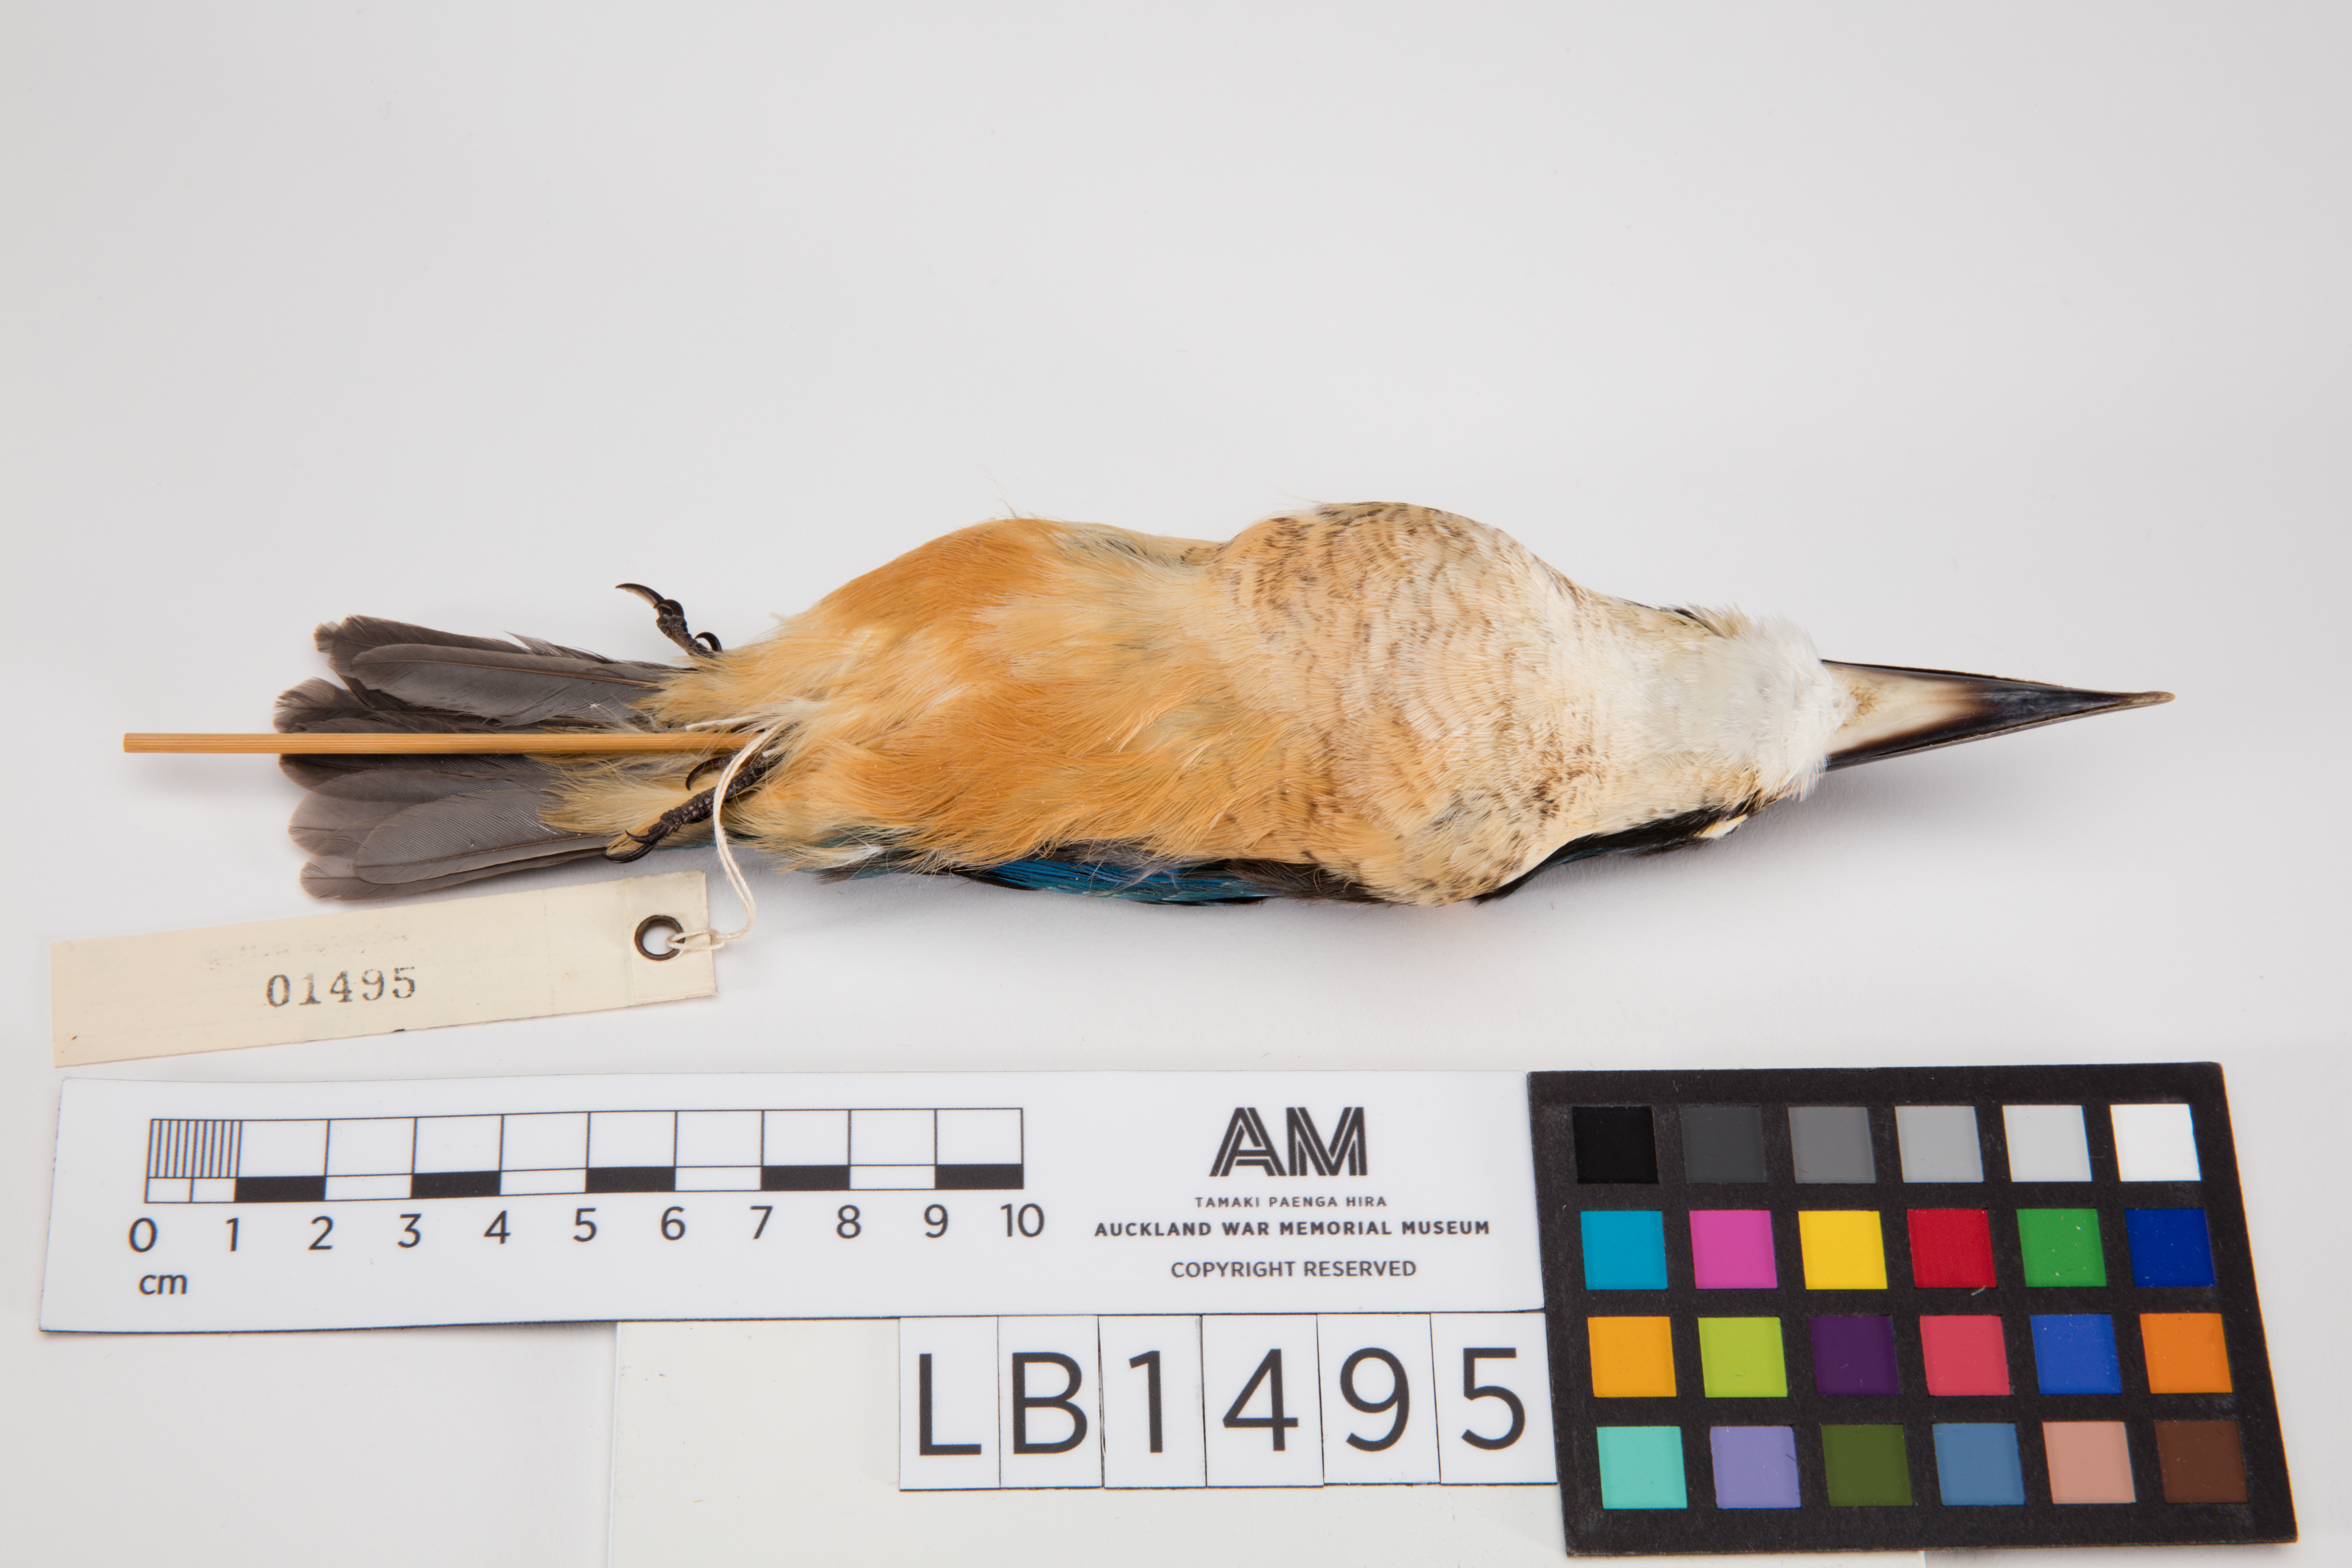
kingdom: Animalia
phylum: Chordata
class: Aves
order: Coraciiformes
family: Alcedinidae
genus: Todiramphus
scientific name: Todiramphus sanctus
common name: Sacred kingfisher
